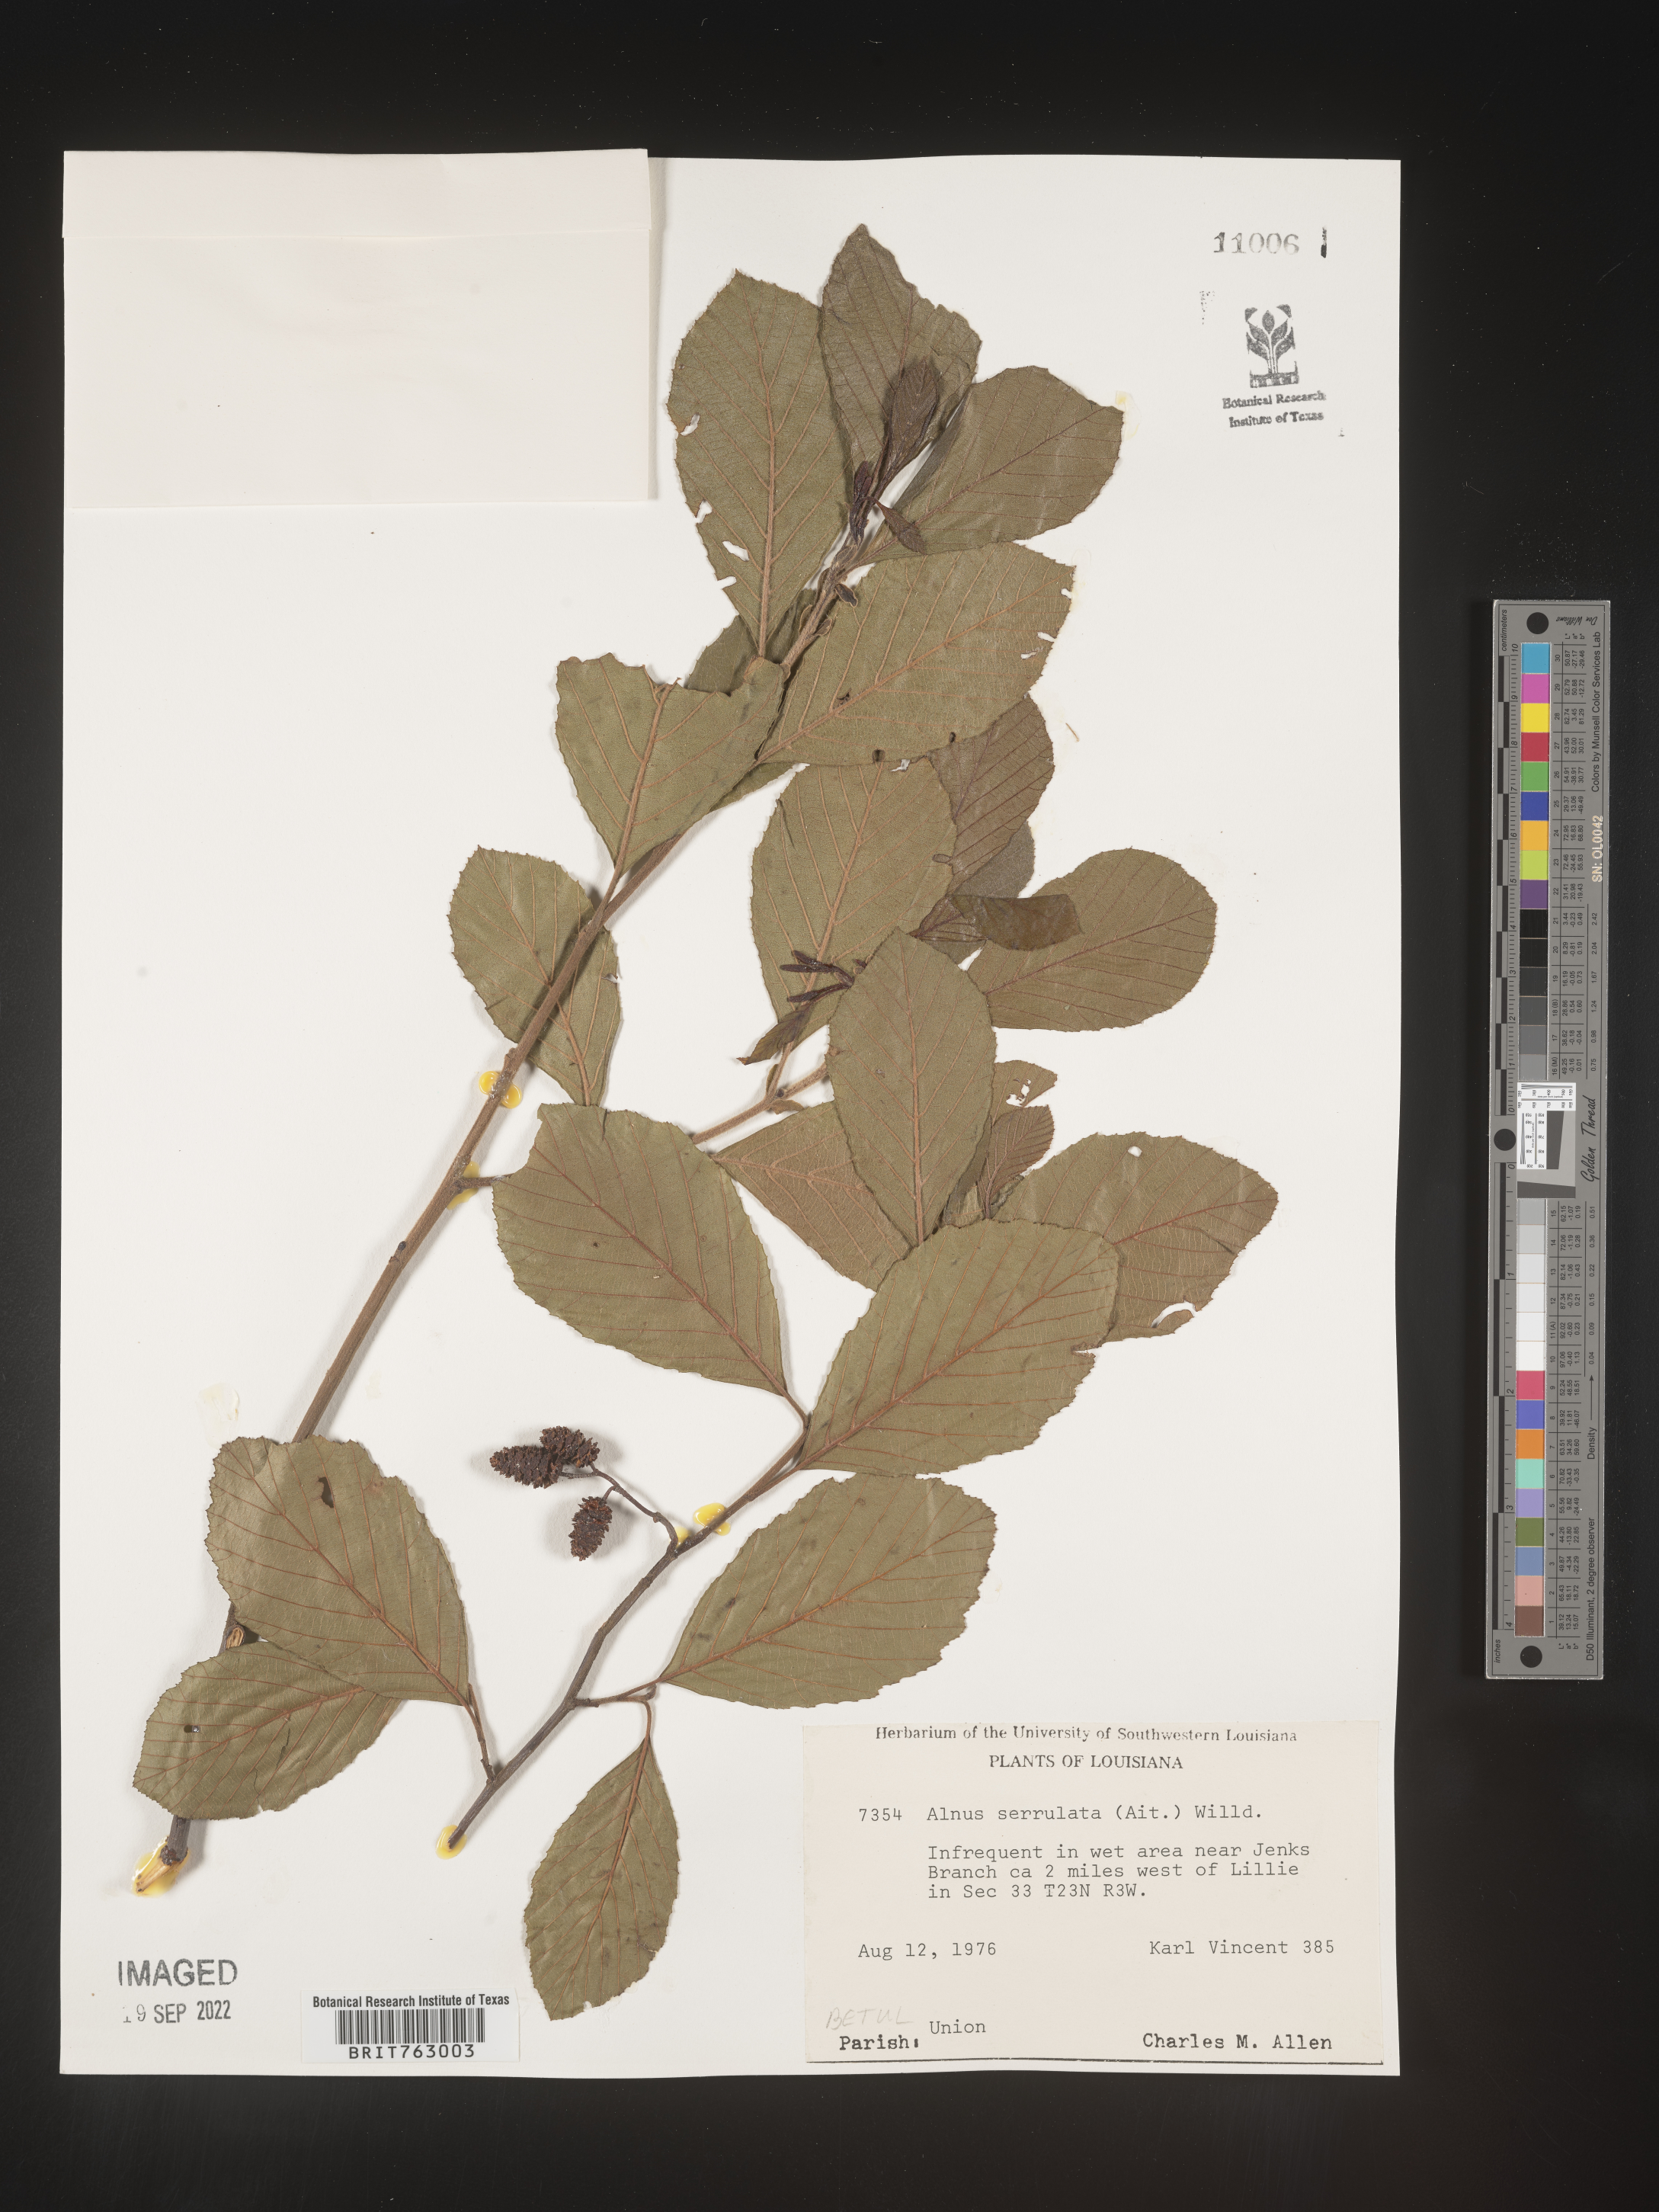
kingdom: Plantae
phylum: Tracheophyta
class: Magnoliopsida
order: Fagales
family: Betulaceae
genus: Alnus
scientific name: Alnus serrulata
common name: Hazel alder
